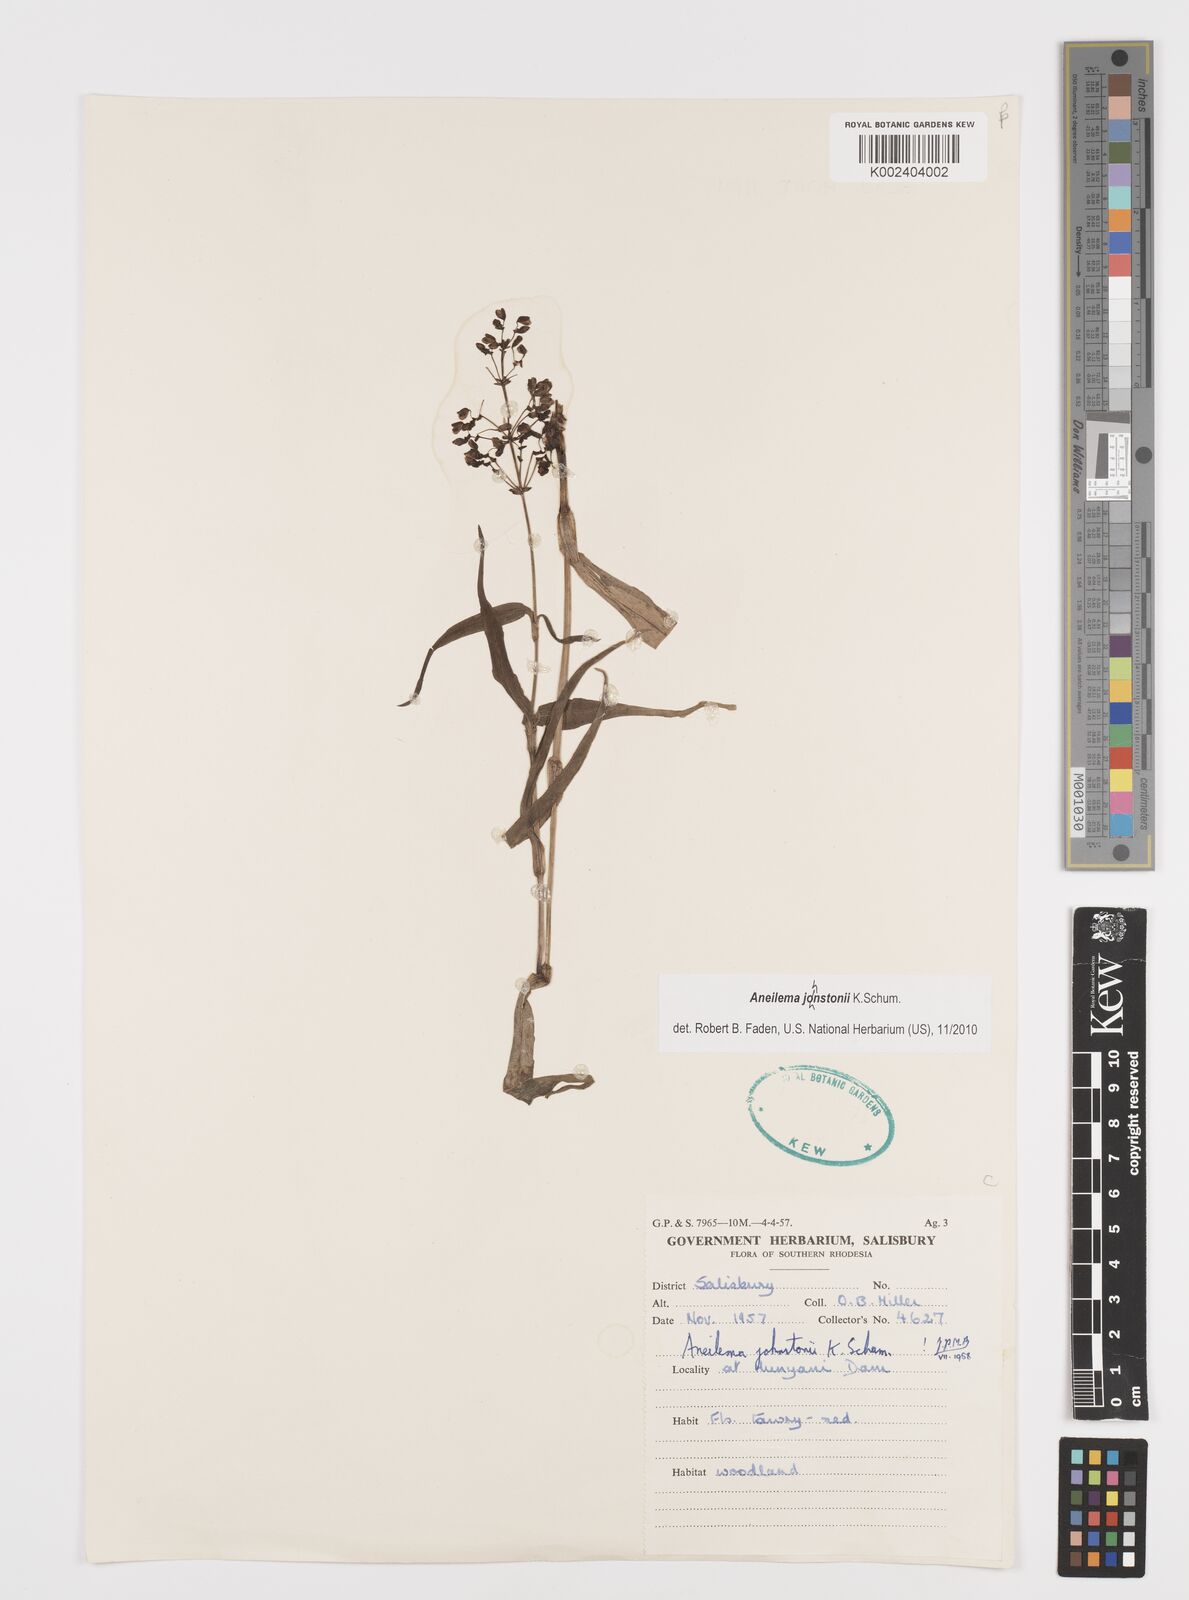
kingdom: Plantae
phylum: Tracheophyta
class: Liliopsida
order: Commelinales
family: Commelinaceae
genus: Aneilema
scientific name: Aneilema johnstonii
